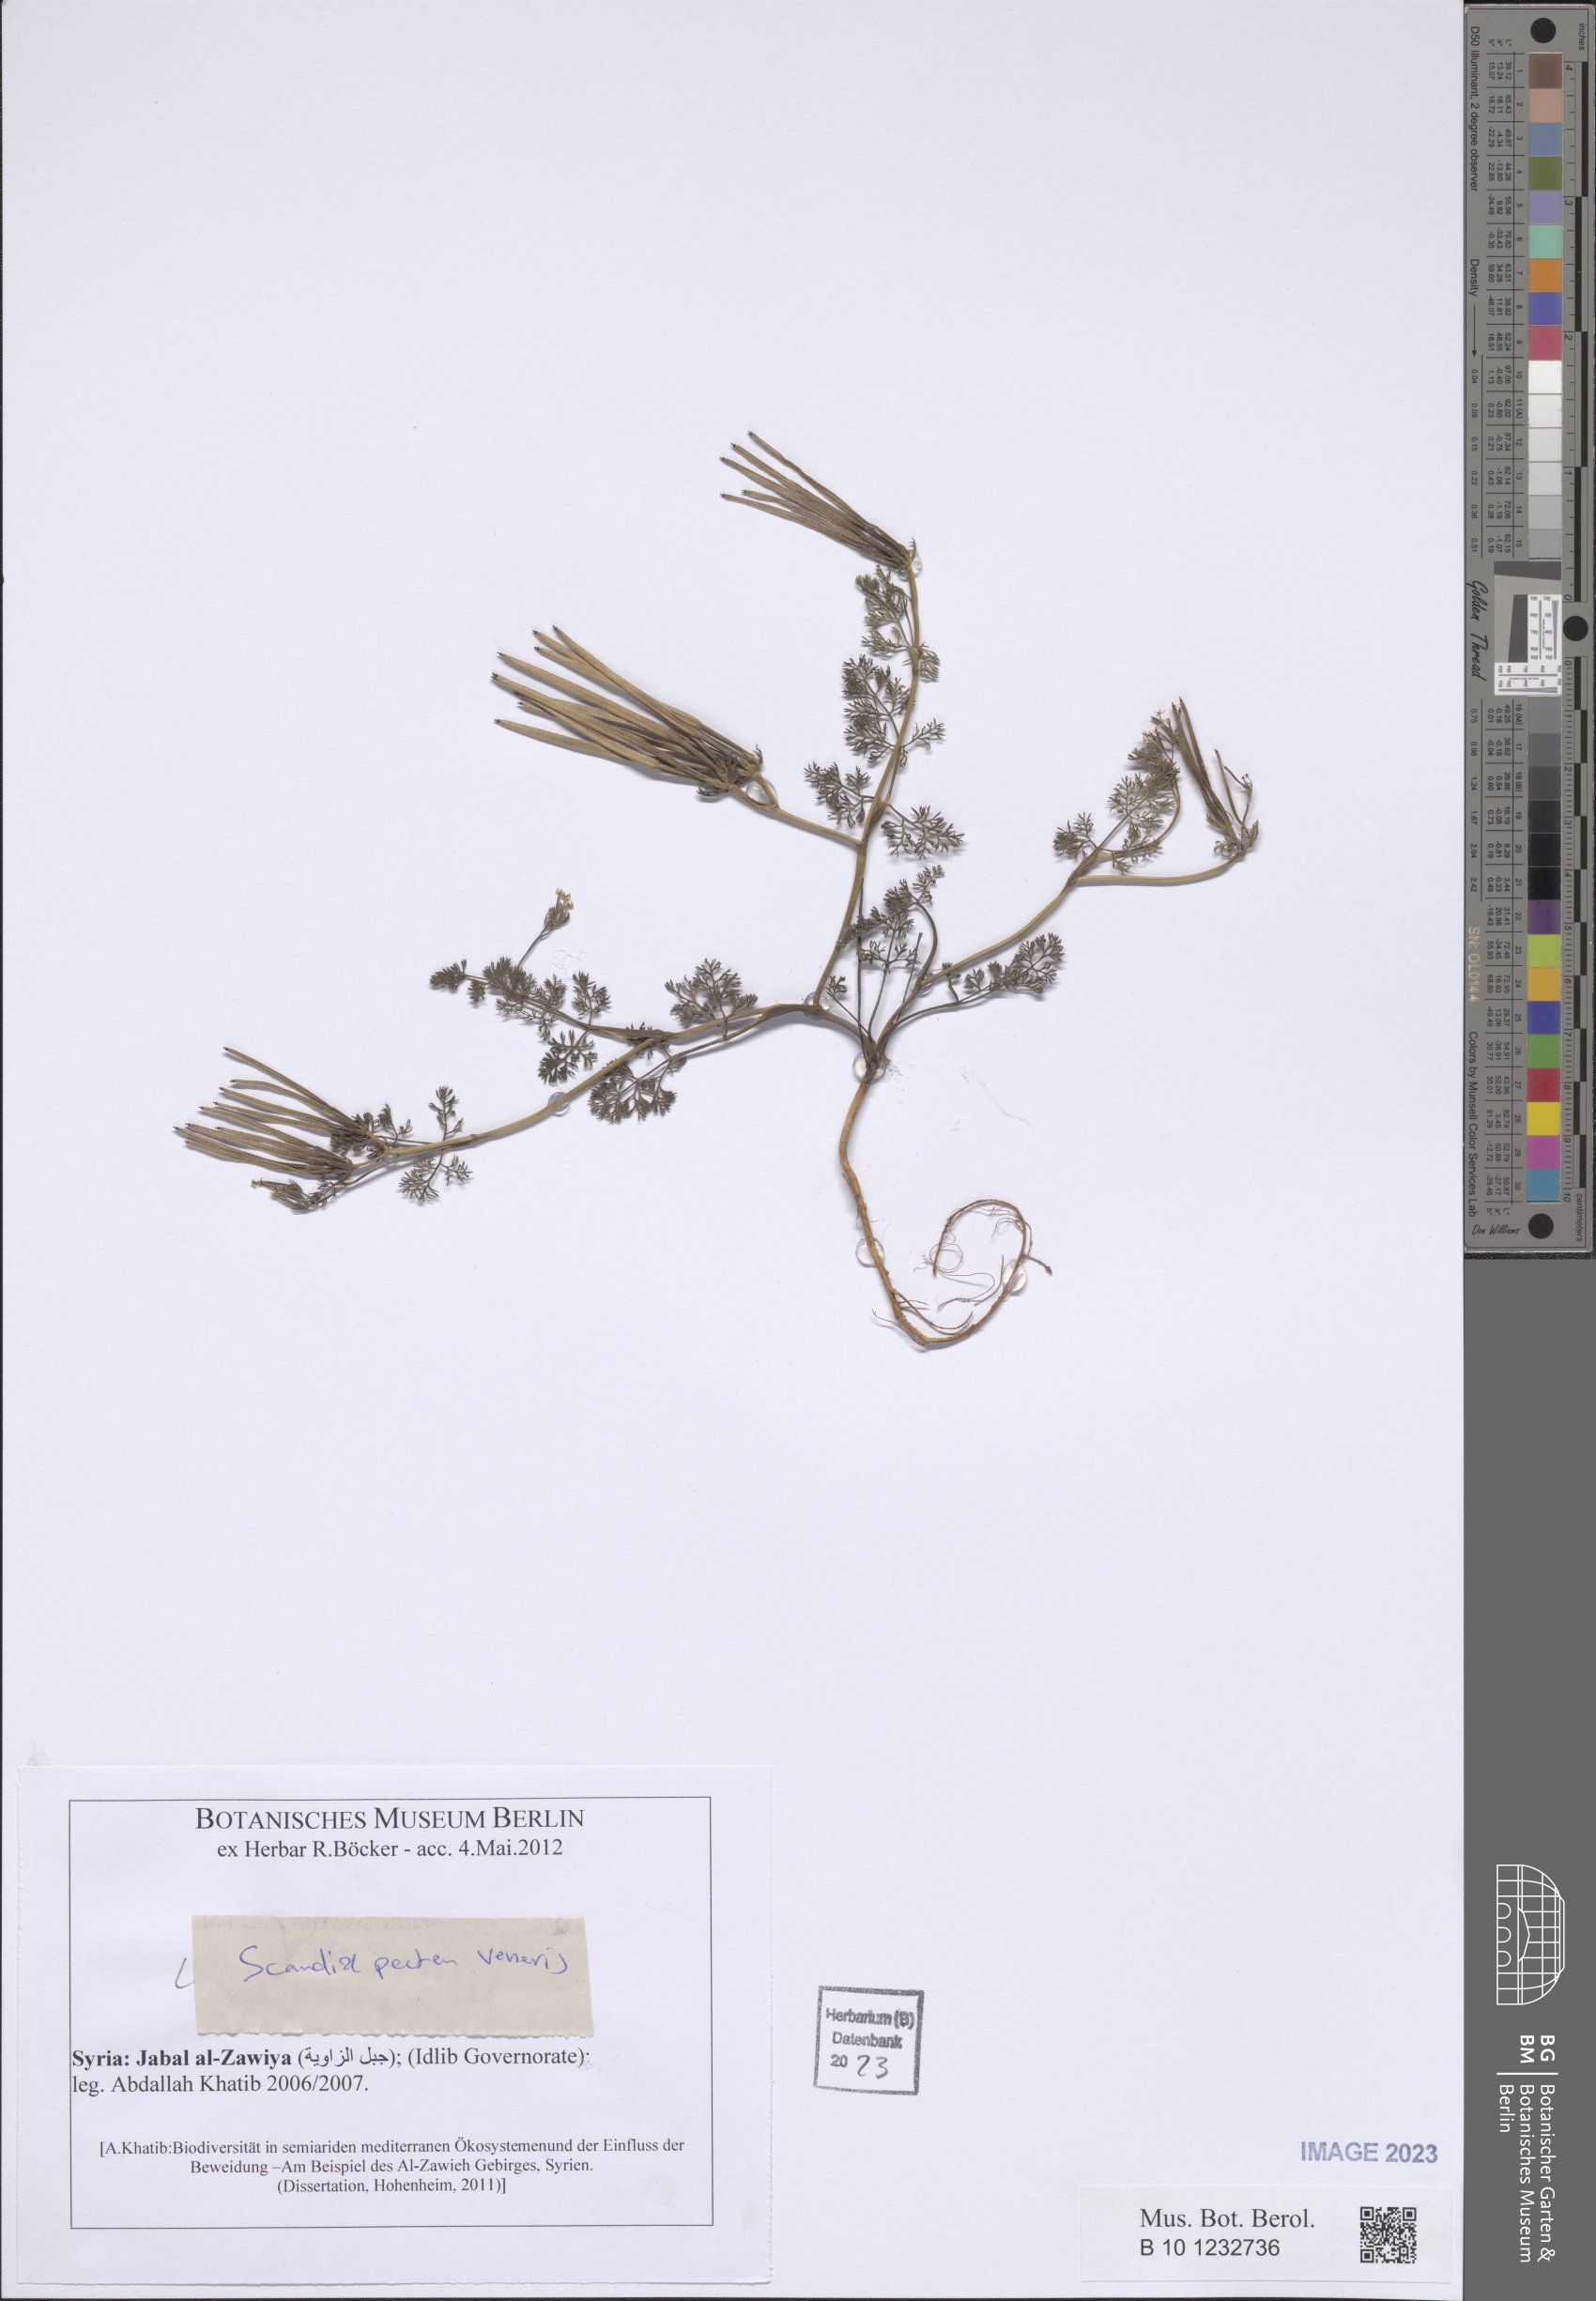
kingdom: Plantae
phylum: Tracheophyta
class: Magnoliopsida
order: Apiales
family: Apiaceae
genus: Scandix
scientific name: Scandix pecten-veneris
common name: Shepherd's-needle
